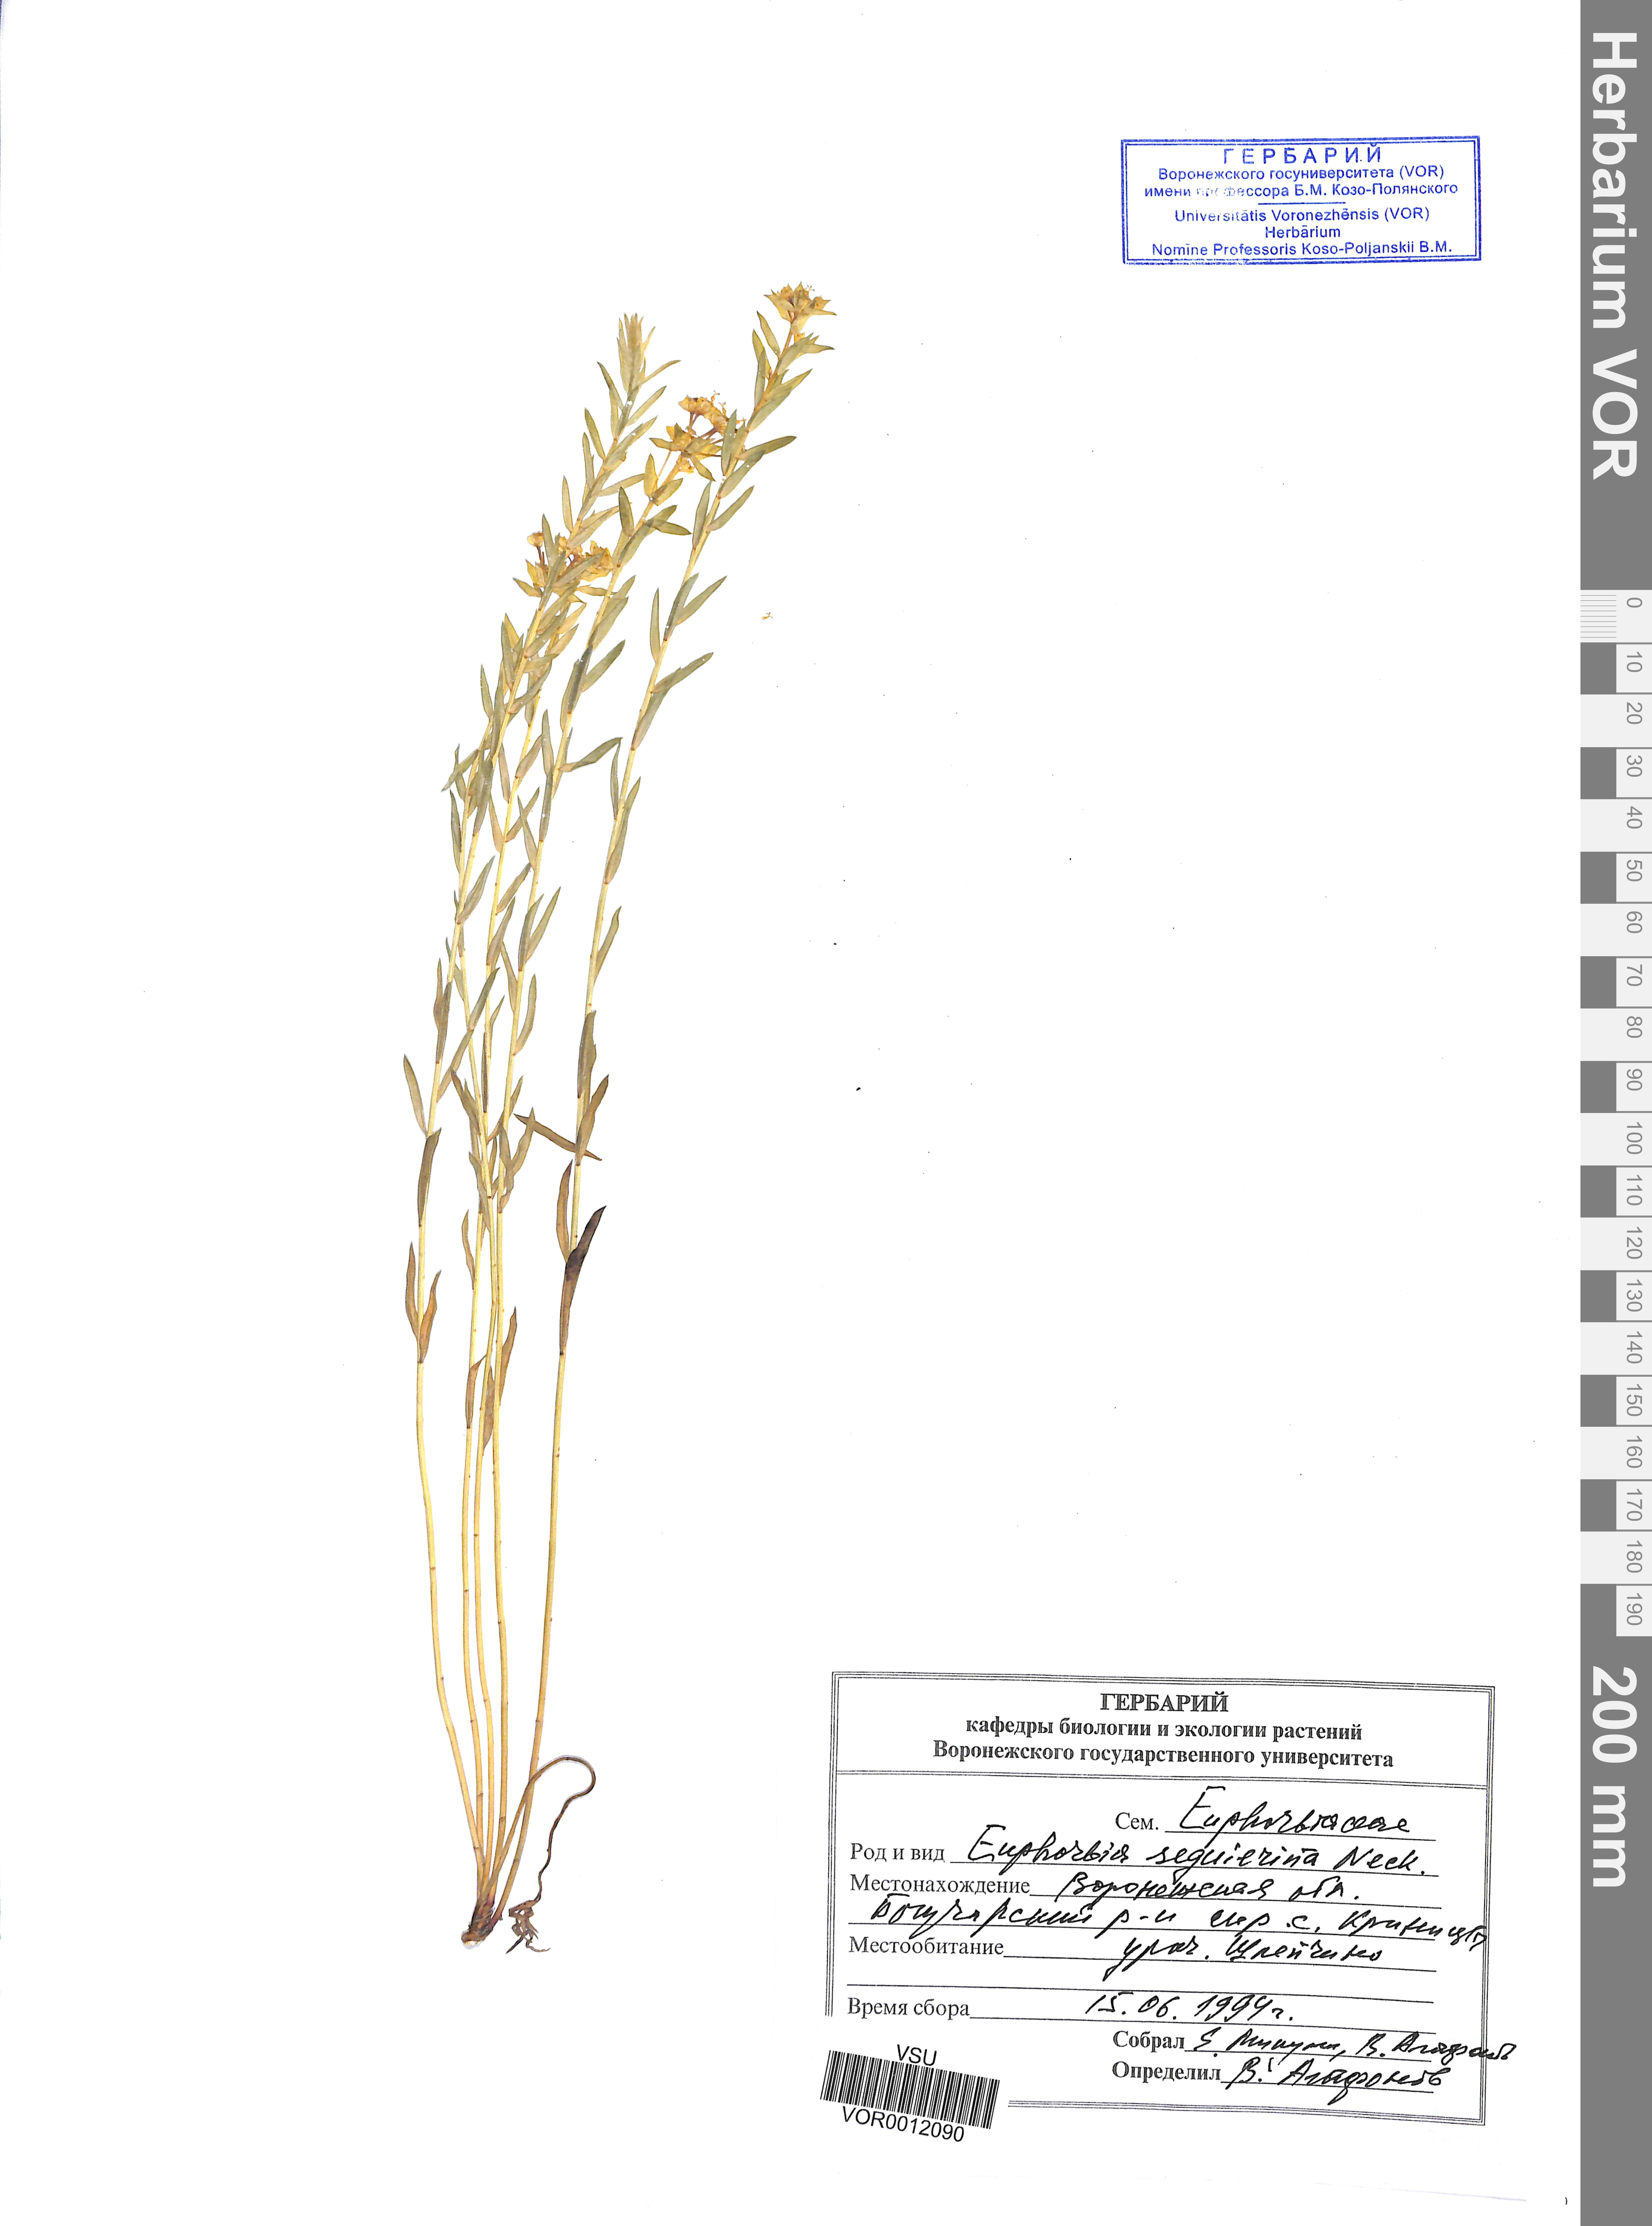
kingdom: Plantae
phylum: Tracheophyta
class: Magnoliopsida
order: Malpighiales
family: Euphorbiaceae
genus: Euphorbia
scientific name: Euphorbia seguieriana
